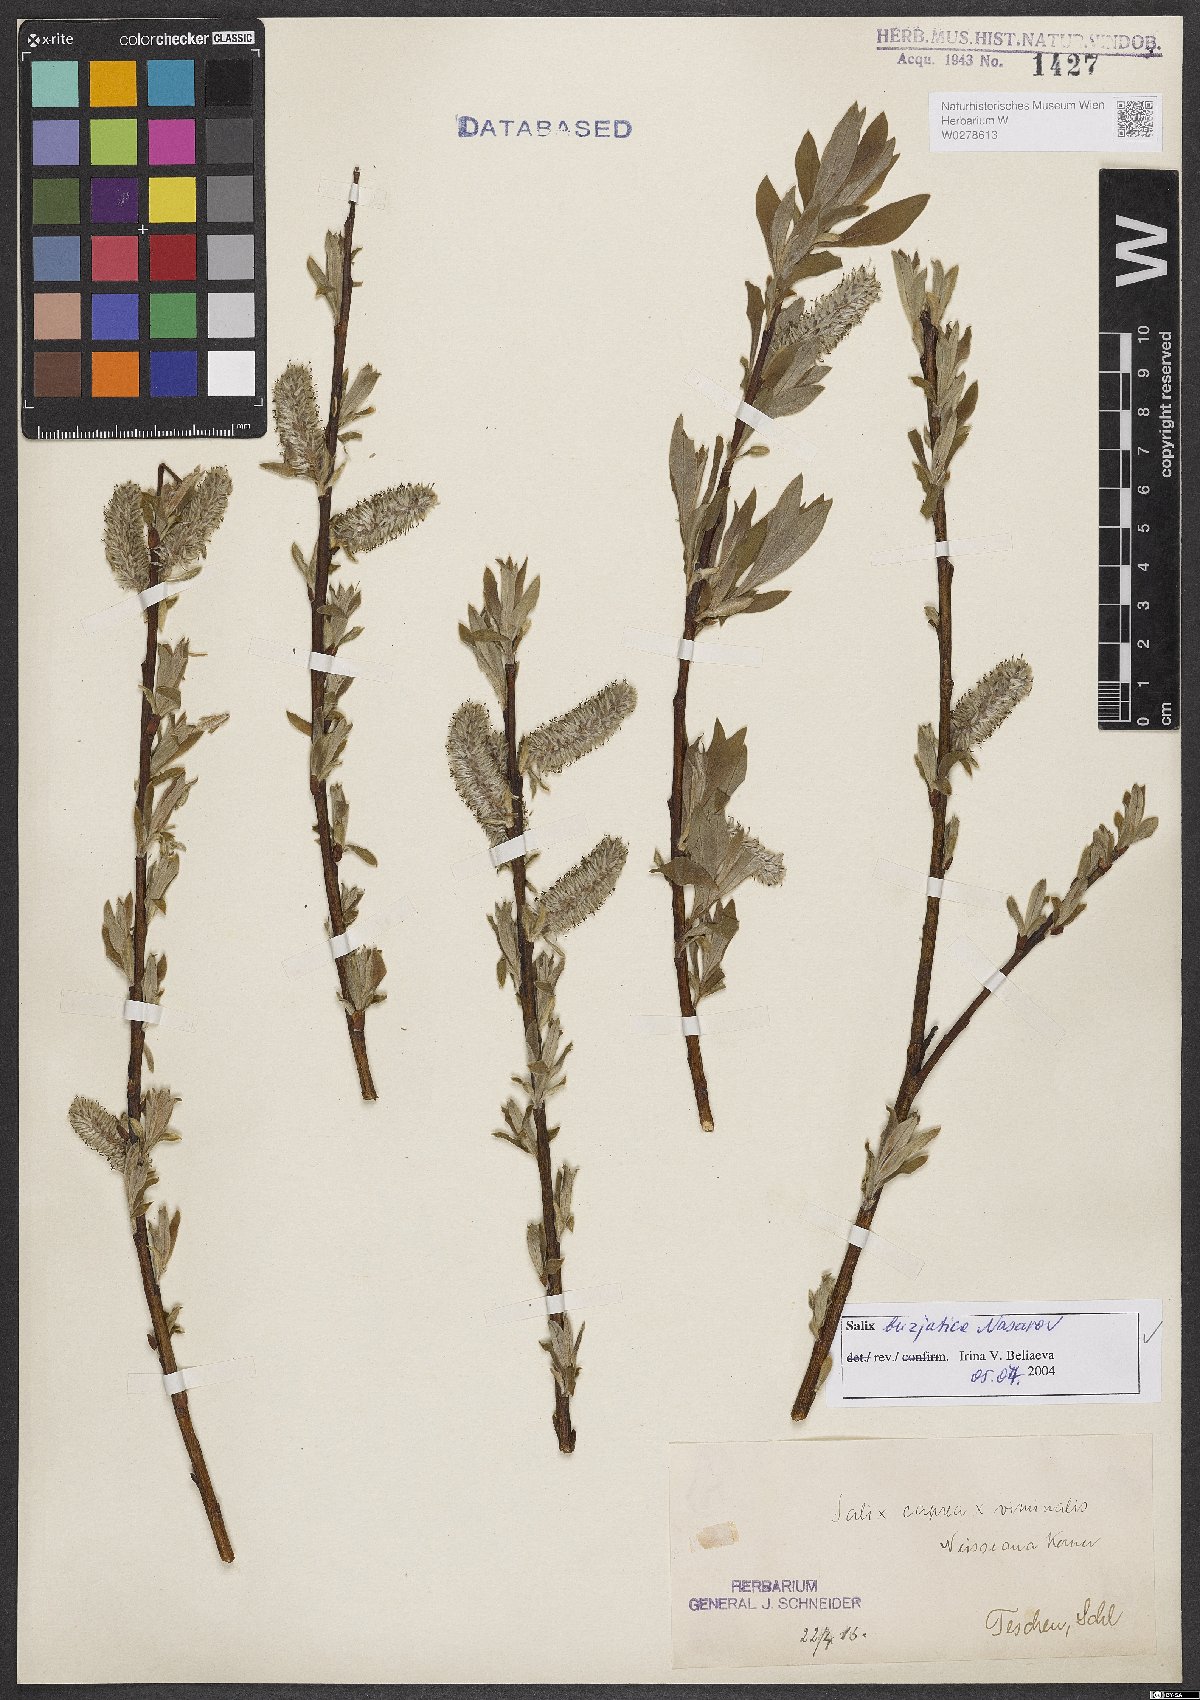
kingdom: Plantae
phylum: Tracheophyta
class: Magnoliopsida
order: Malpighiales
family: Salicaceae
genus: Salix
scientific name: Salix gmelinii
